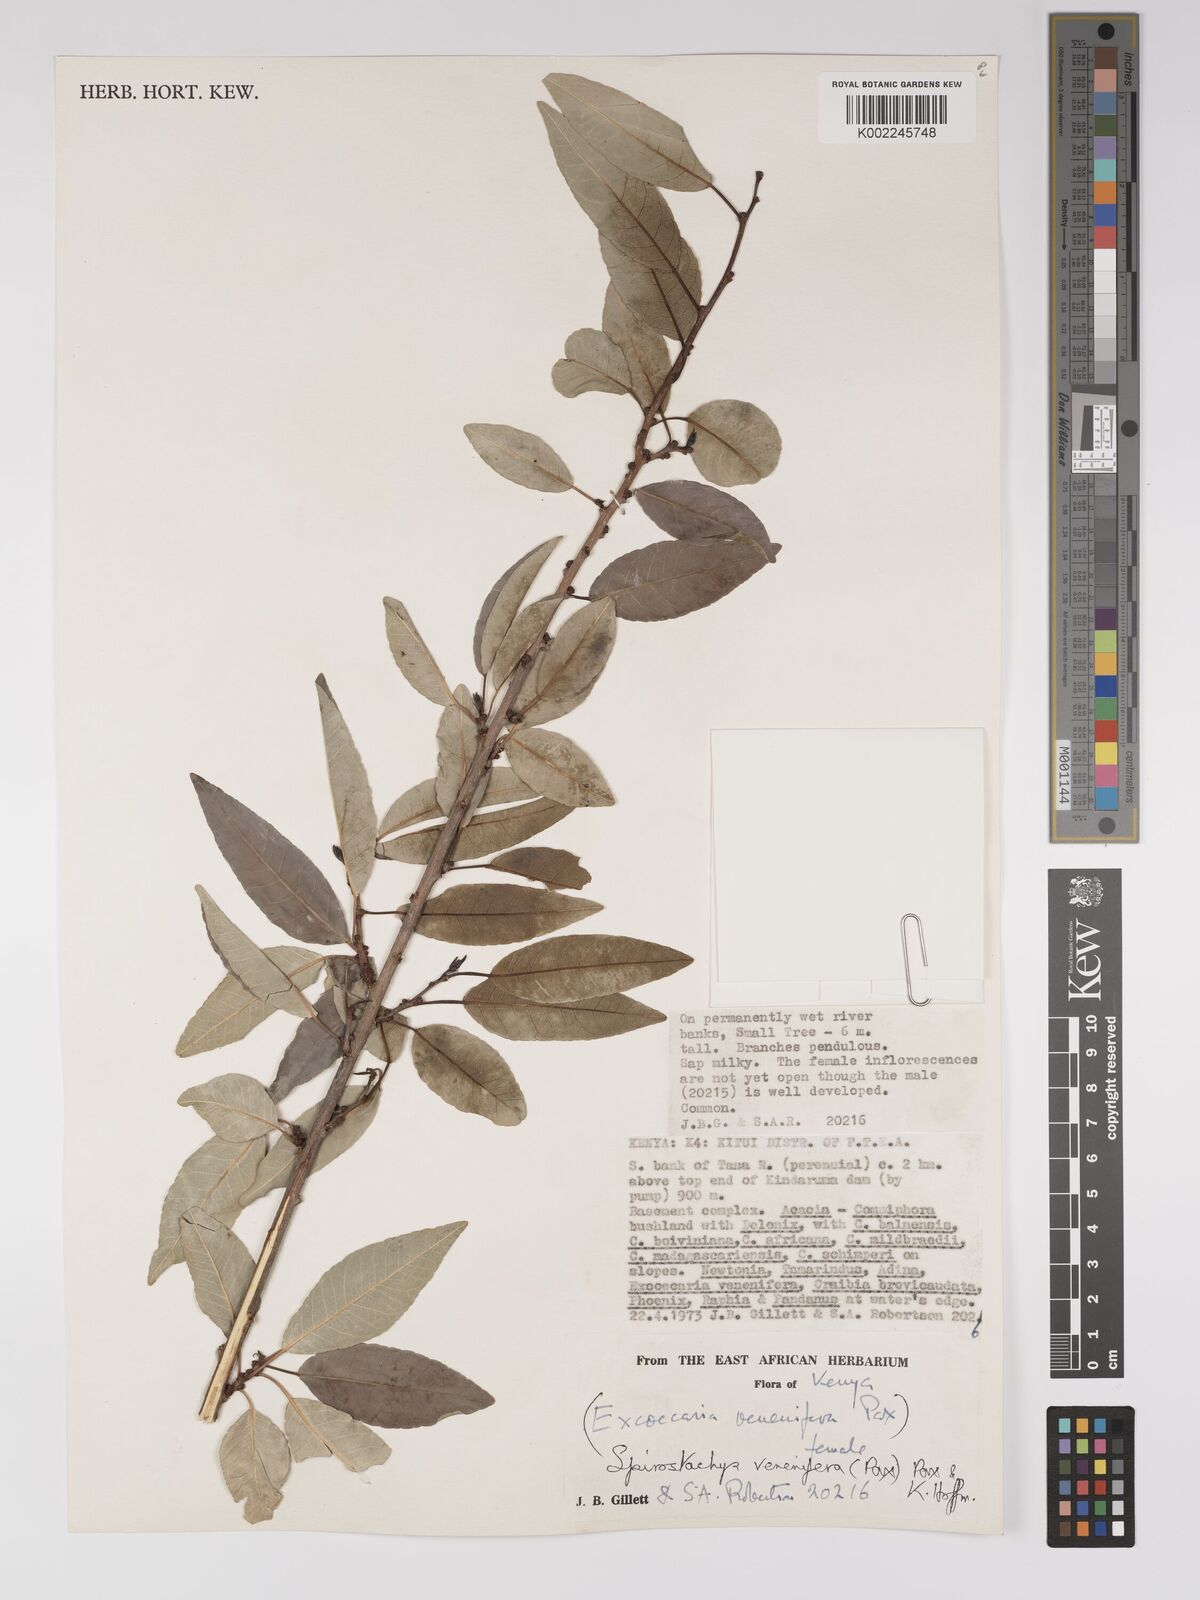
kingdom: Plantae
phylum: Tracheophyta
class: Magnoliopsida
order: Malpighiales
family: Euphorbiaceae
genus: Spirostachys
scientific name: Spirostachys venenifera
